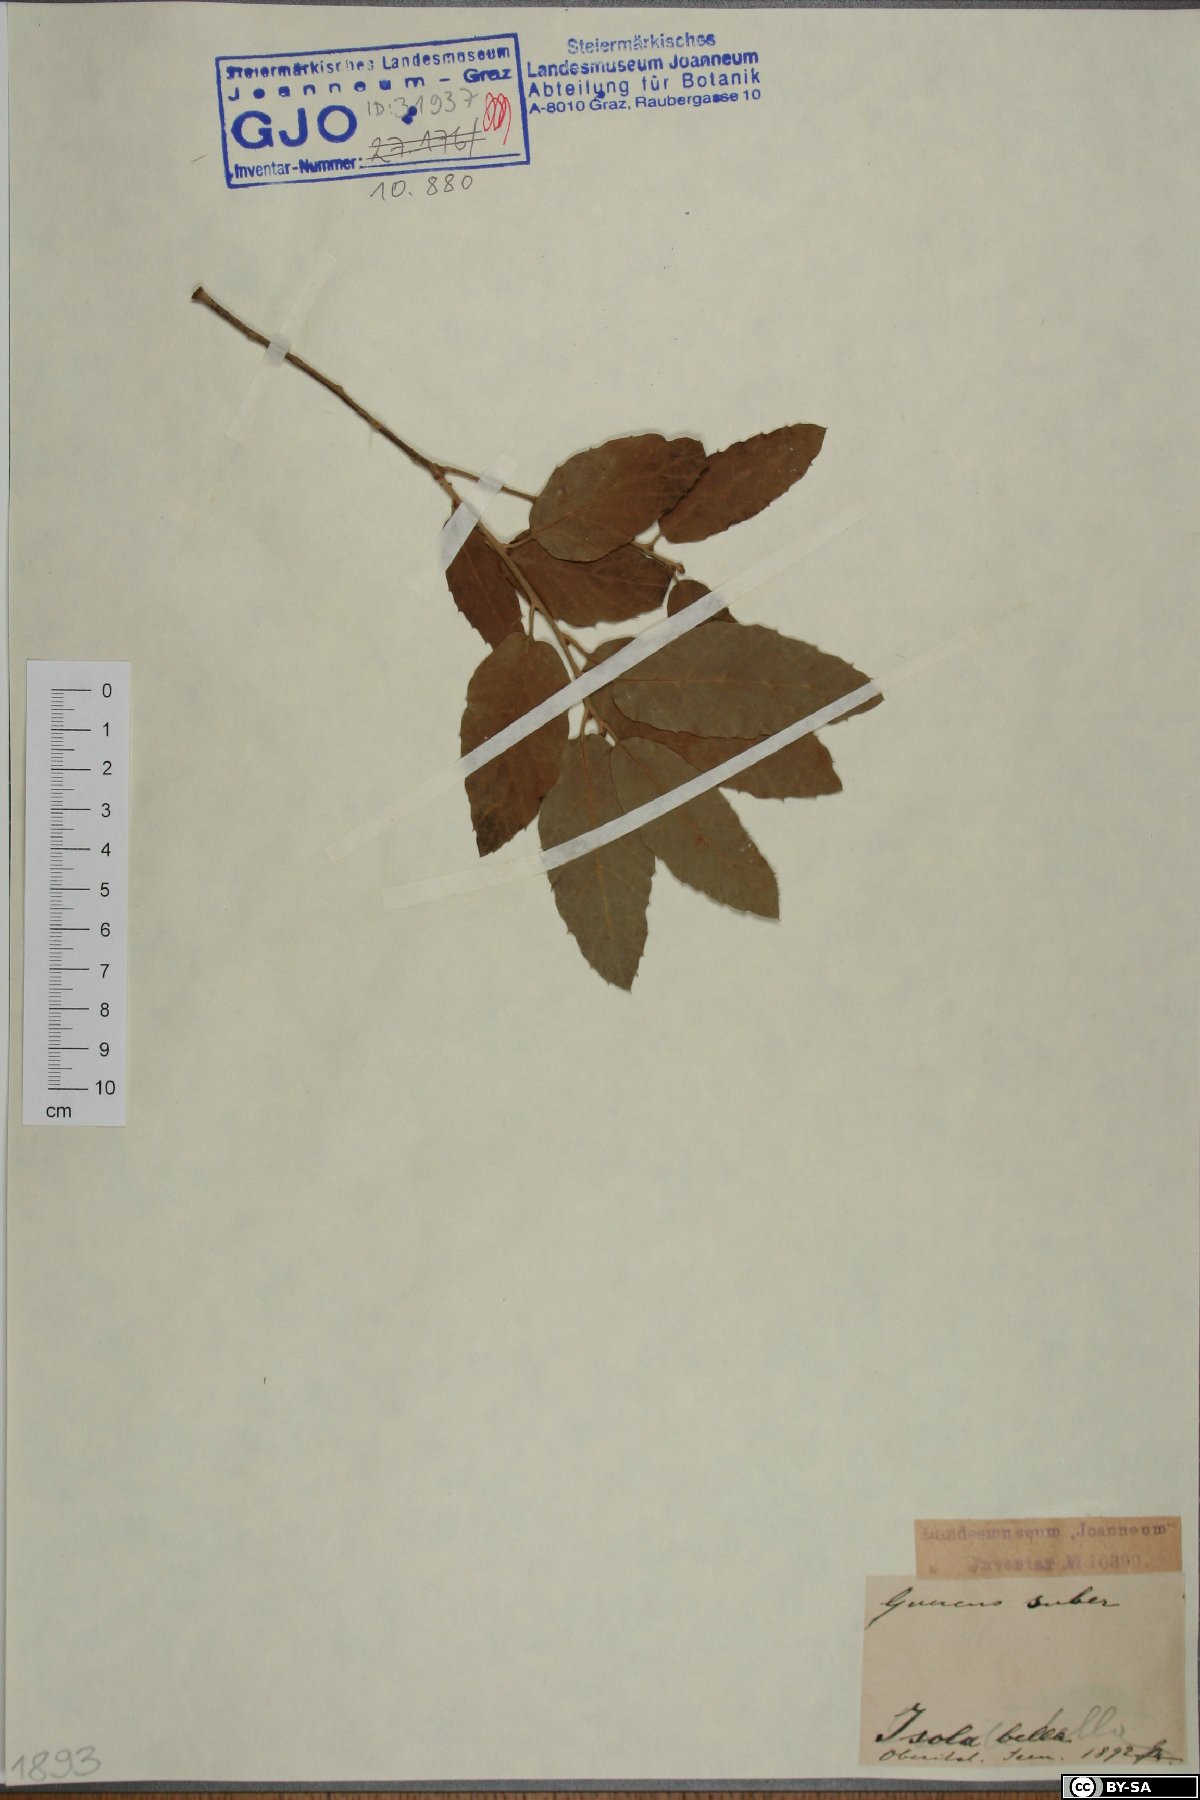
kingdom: Plantae
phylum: Tracheophyta
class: Magnoliopsida
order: Fagales
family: Fagaceae
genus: Quercus
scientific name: Quercus suber
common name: Cork oak
